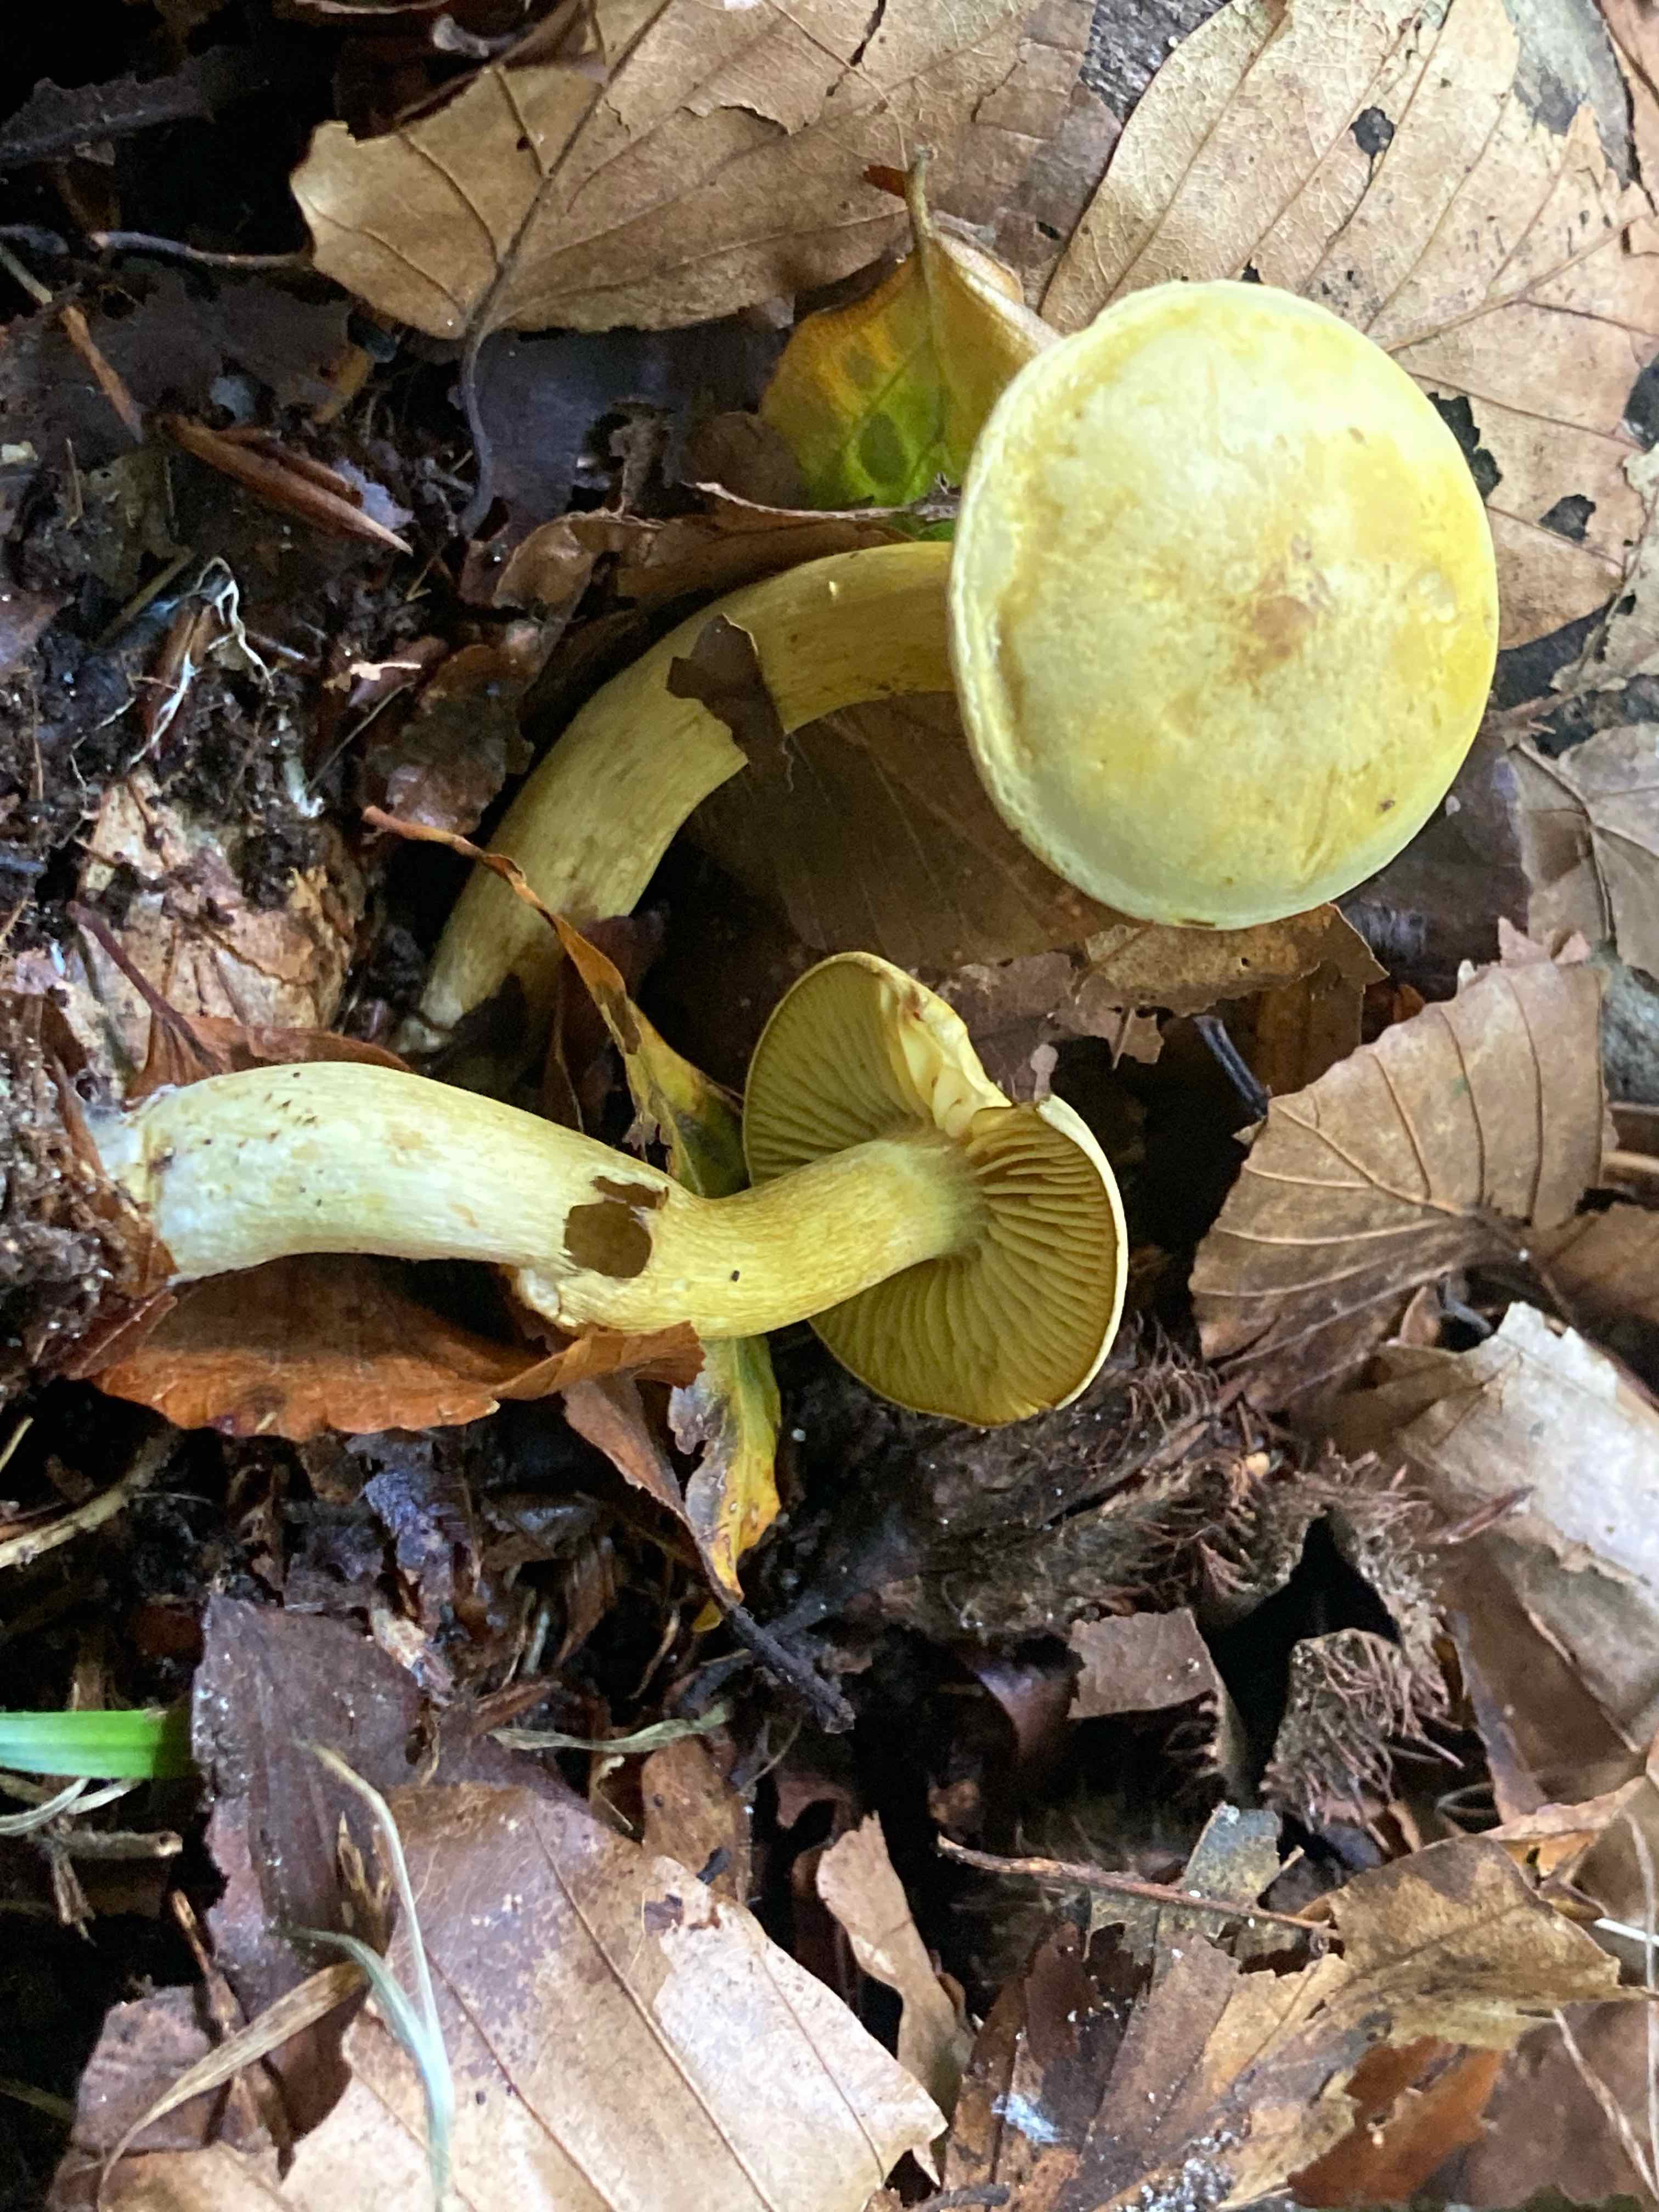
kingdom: Fungi
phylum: Basidiomycota
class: Agaricomycetes
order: Agaricales
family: Tricholomataceae
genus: Tricholoma
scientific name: Tricholoma sulphureum
